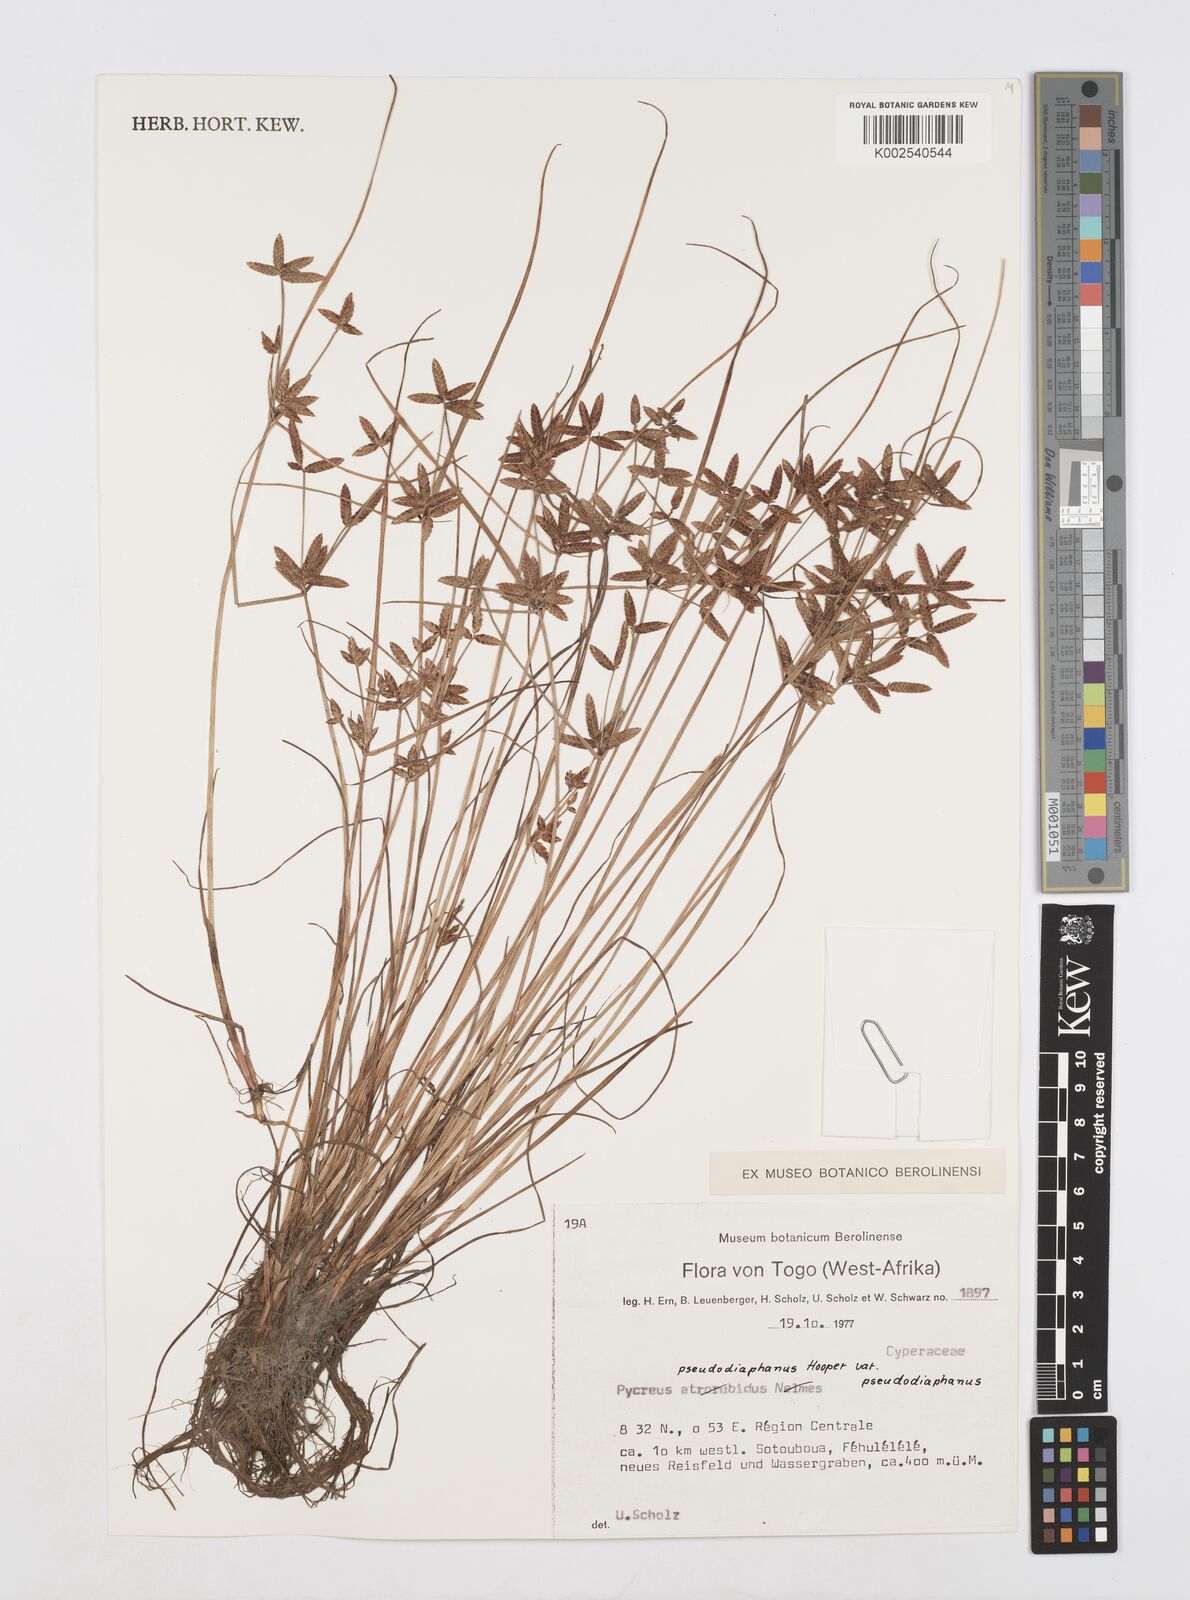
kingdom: Plantae
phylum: Tracheophyta
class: Liliopsida
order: Poales
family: Cyperaceae
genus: Cyperus
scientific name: Cyperus pseudodiaphanus
